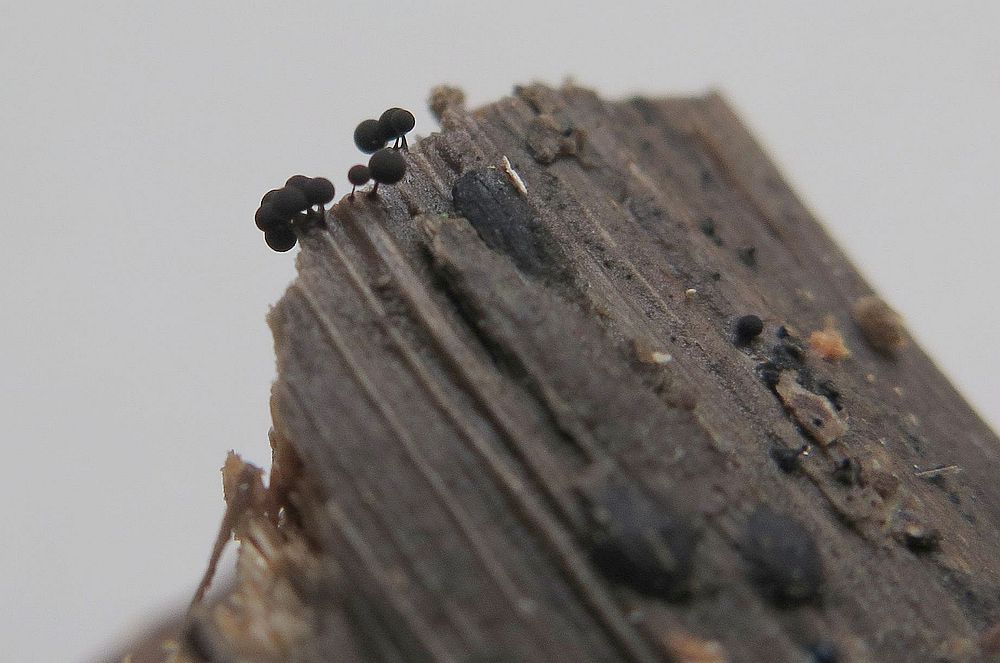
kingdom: Protozoa
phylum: Mycetozoa
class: Myxomycetes
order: Stemonitidales
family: Stemonitidaceae
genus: Enerthenema
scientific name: Enerthenema papillatum
